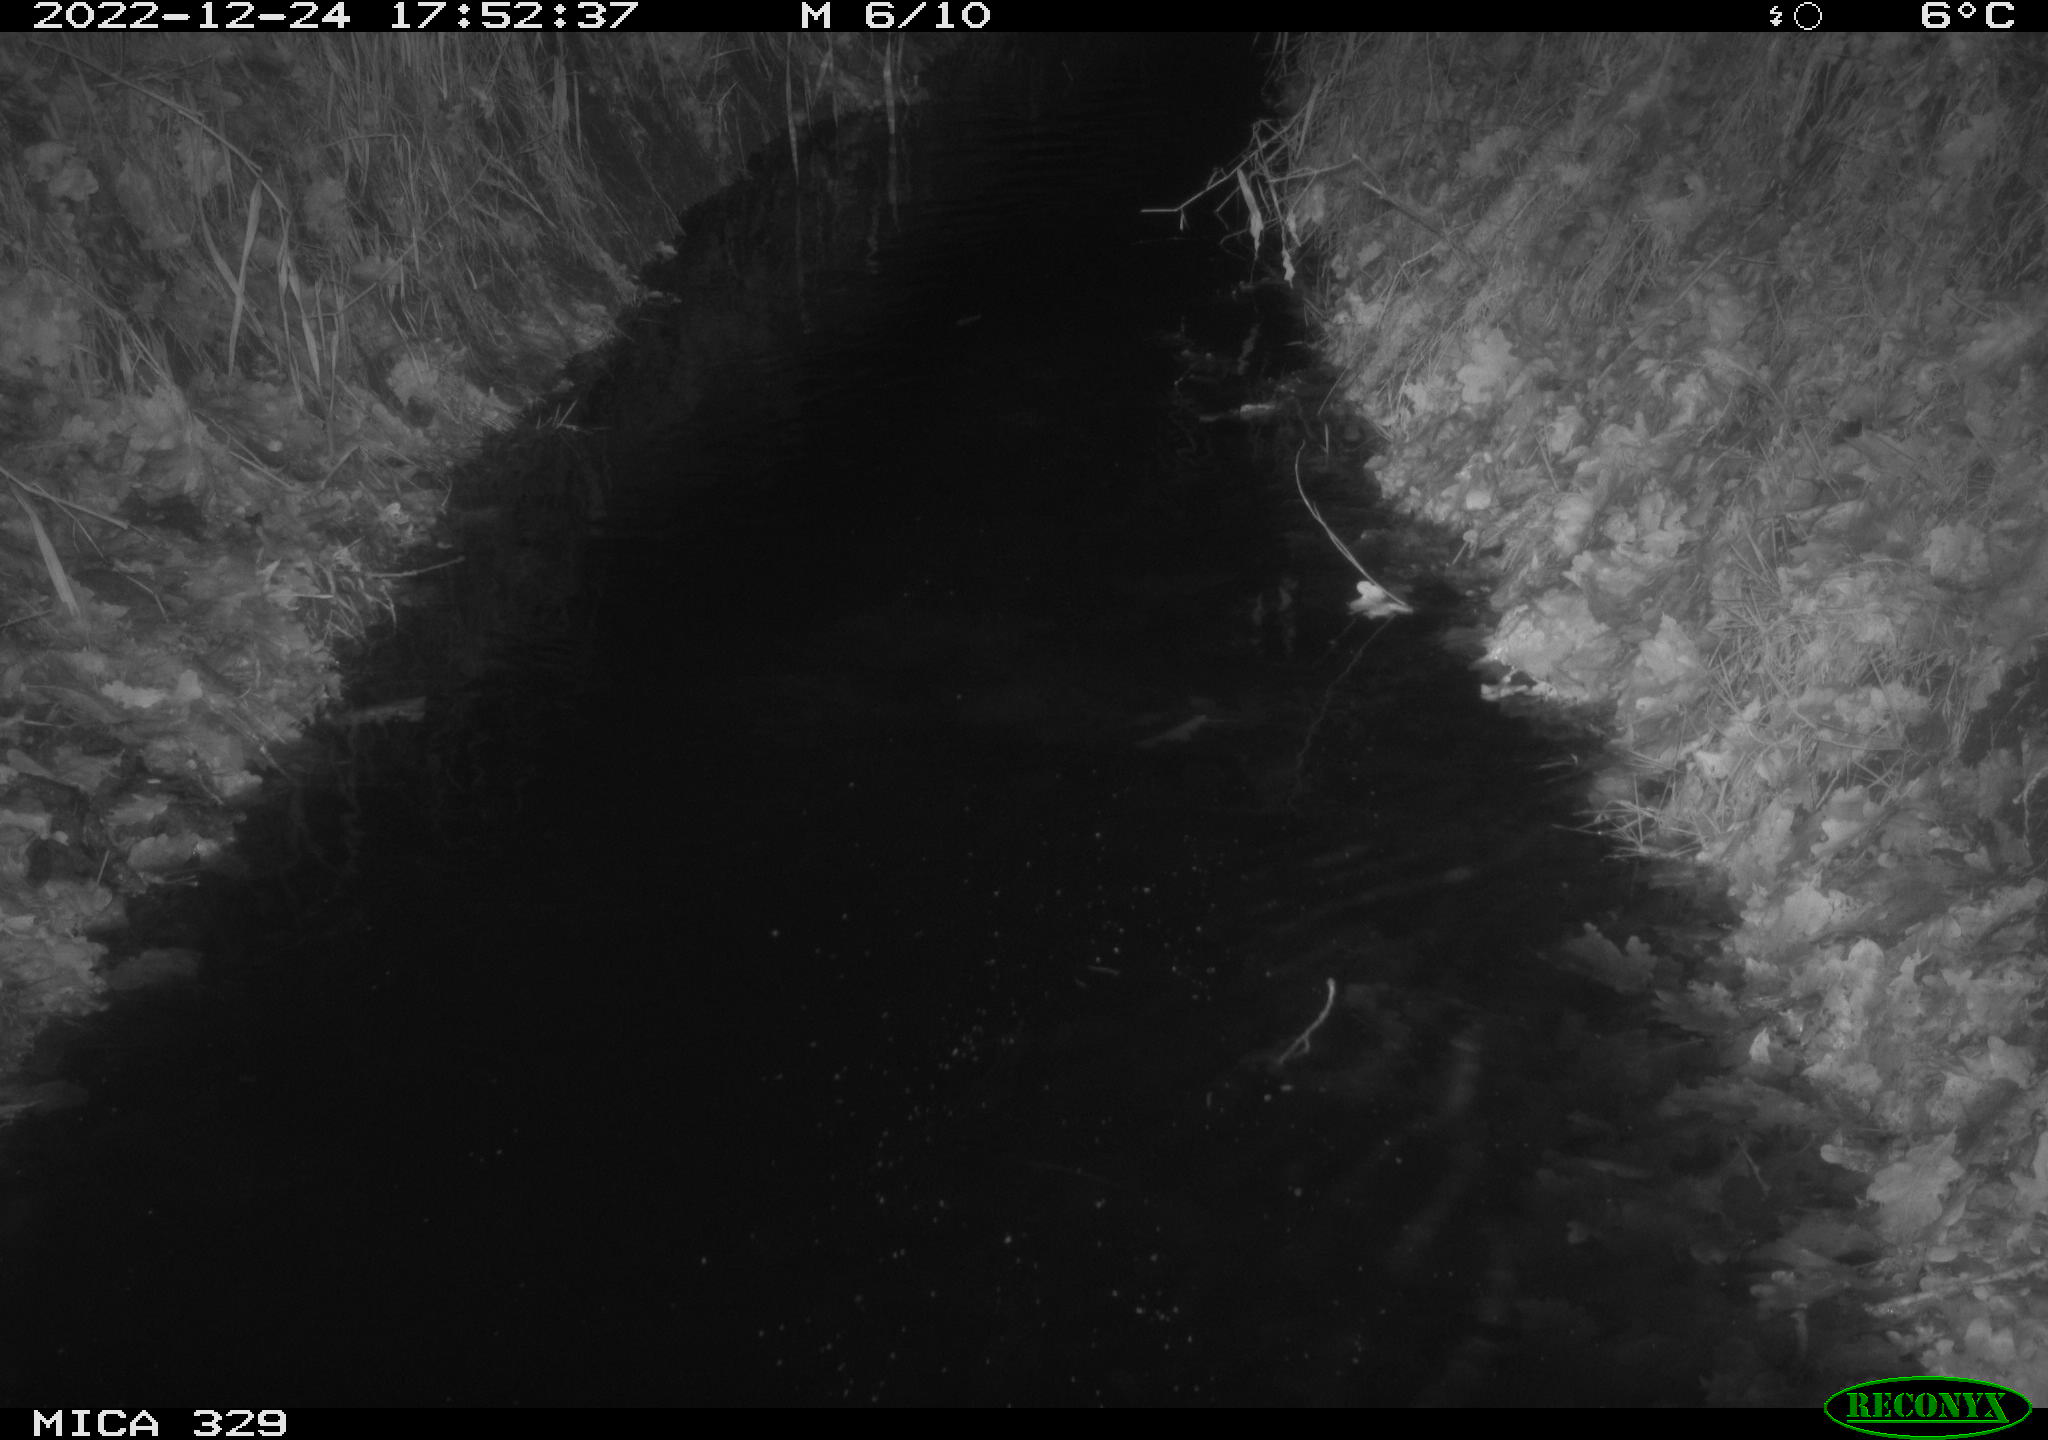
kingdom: Animalia
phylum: Chordata
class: Mammalia
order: Rodentia
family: Cricetidae
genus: Ondatra
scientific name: Ondatra zibethicus
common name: Muskrat
